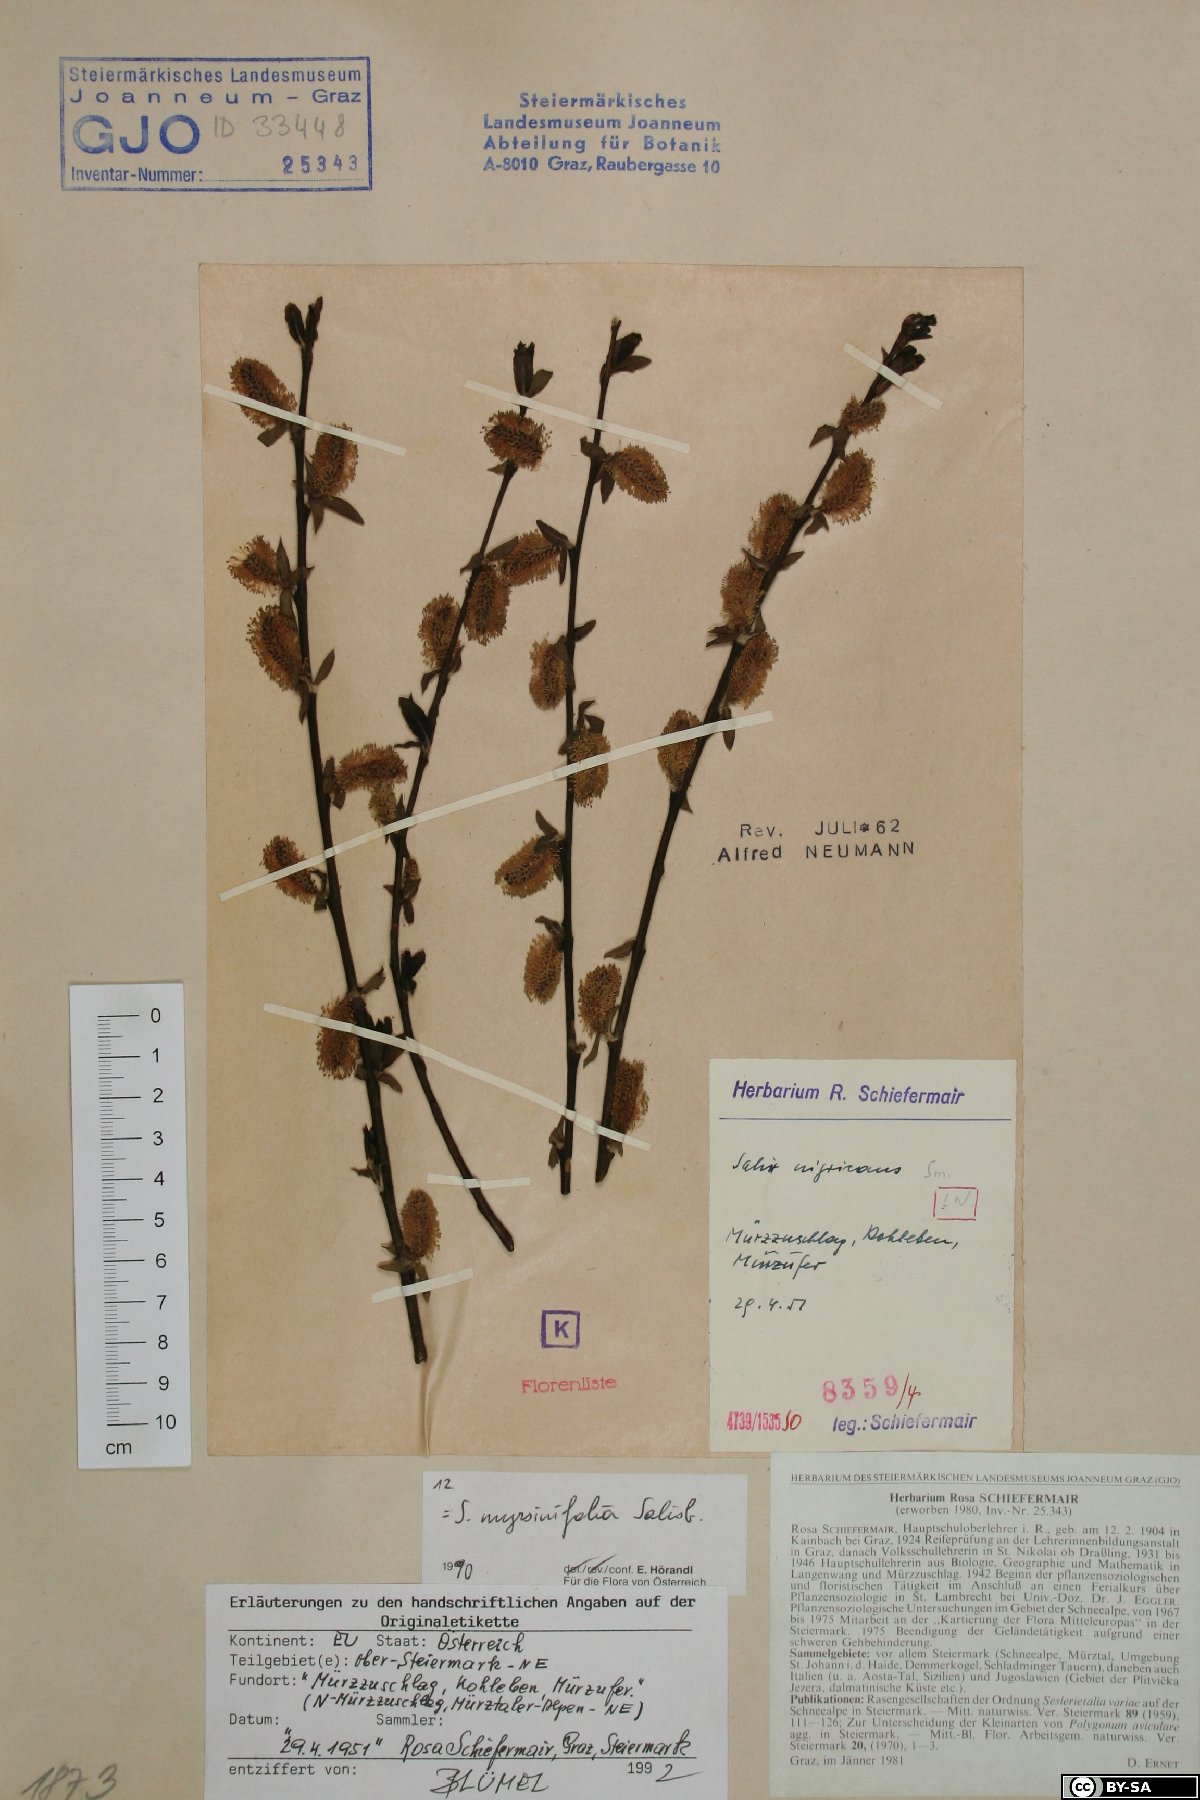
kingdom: Plantae
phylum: Tracheophyta
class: Magnoliopsida
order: Malpighiales
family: Salicaceae
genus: Salix
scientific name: Salix myrsinifolia
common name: Dark-leaved willow
